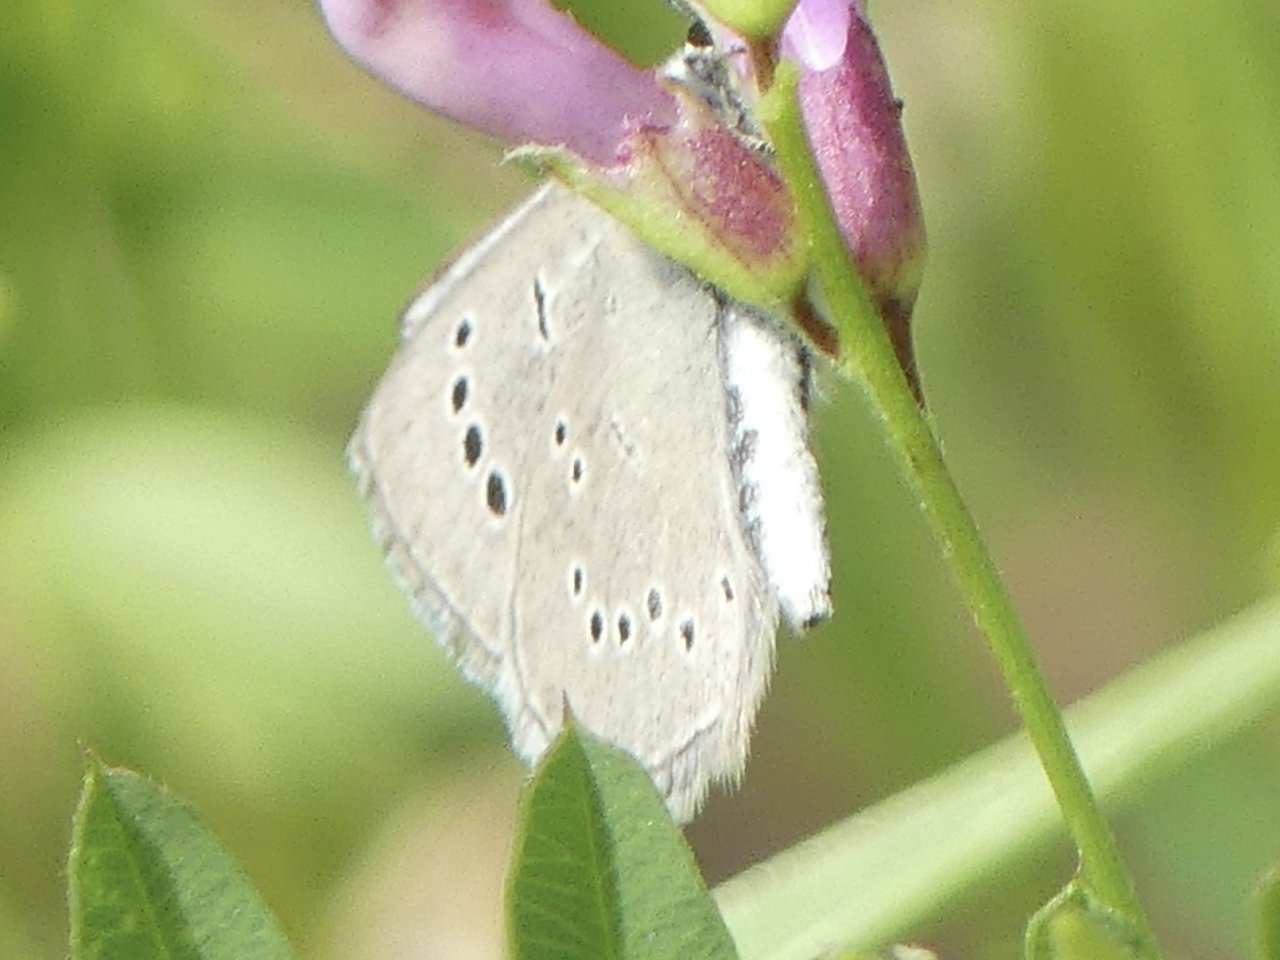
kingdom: Animalia
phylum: Arthropoda
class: Insecta
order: Lepidoptera
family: Lycaenidae
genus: Glaucopsyche
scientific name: Glaucopsyche lygdamus
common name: Silvery Blue
